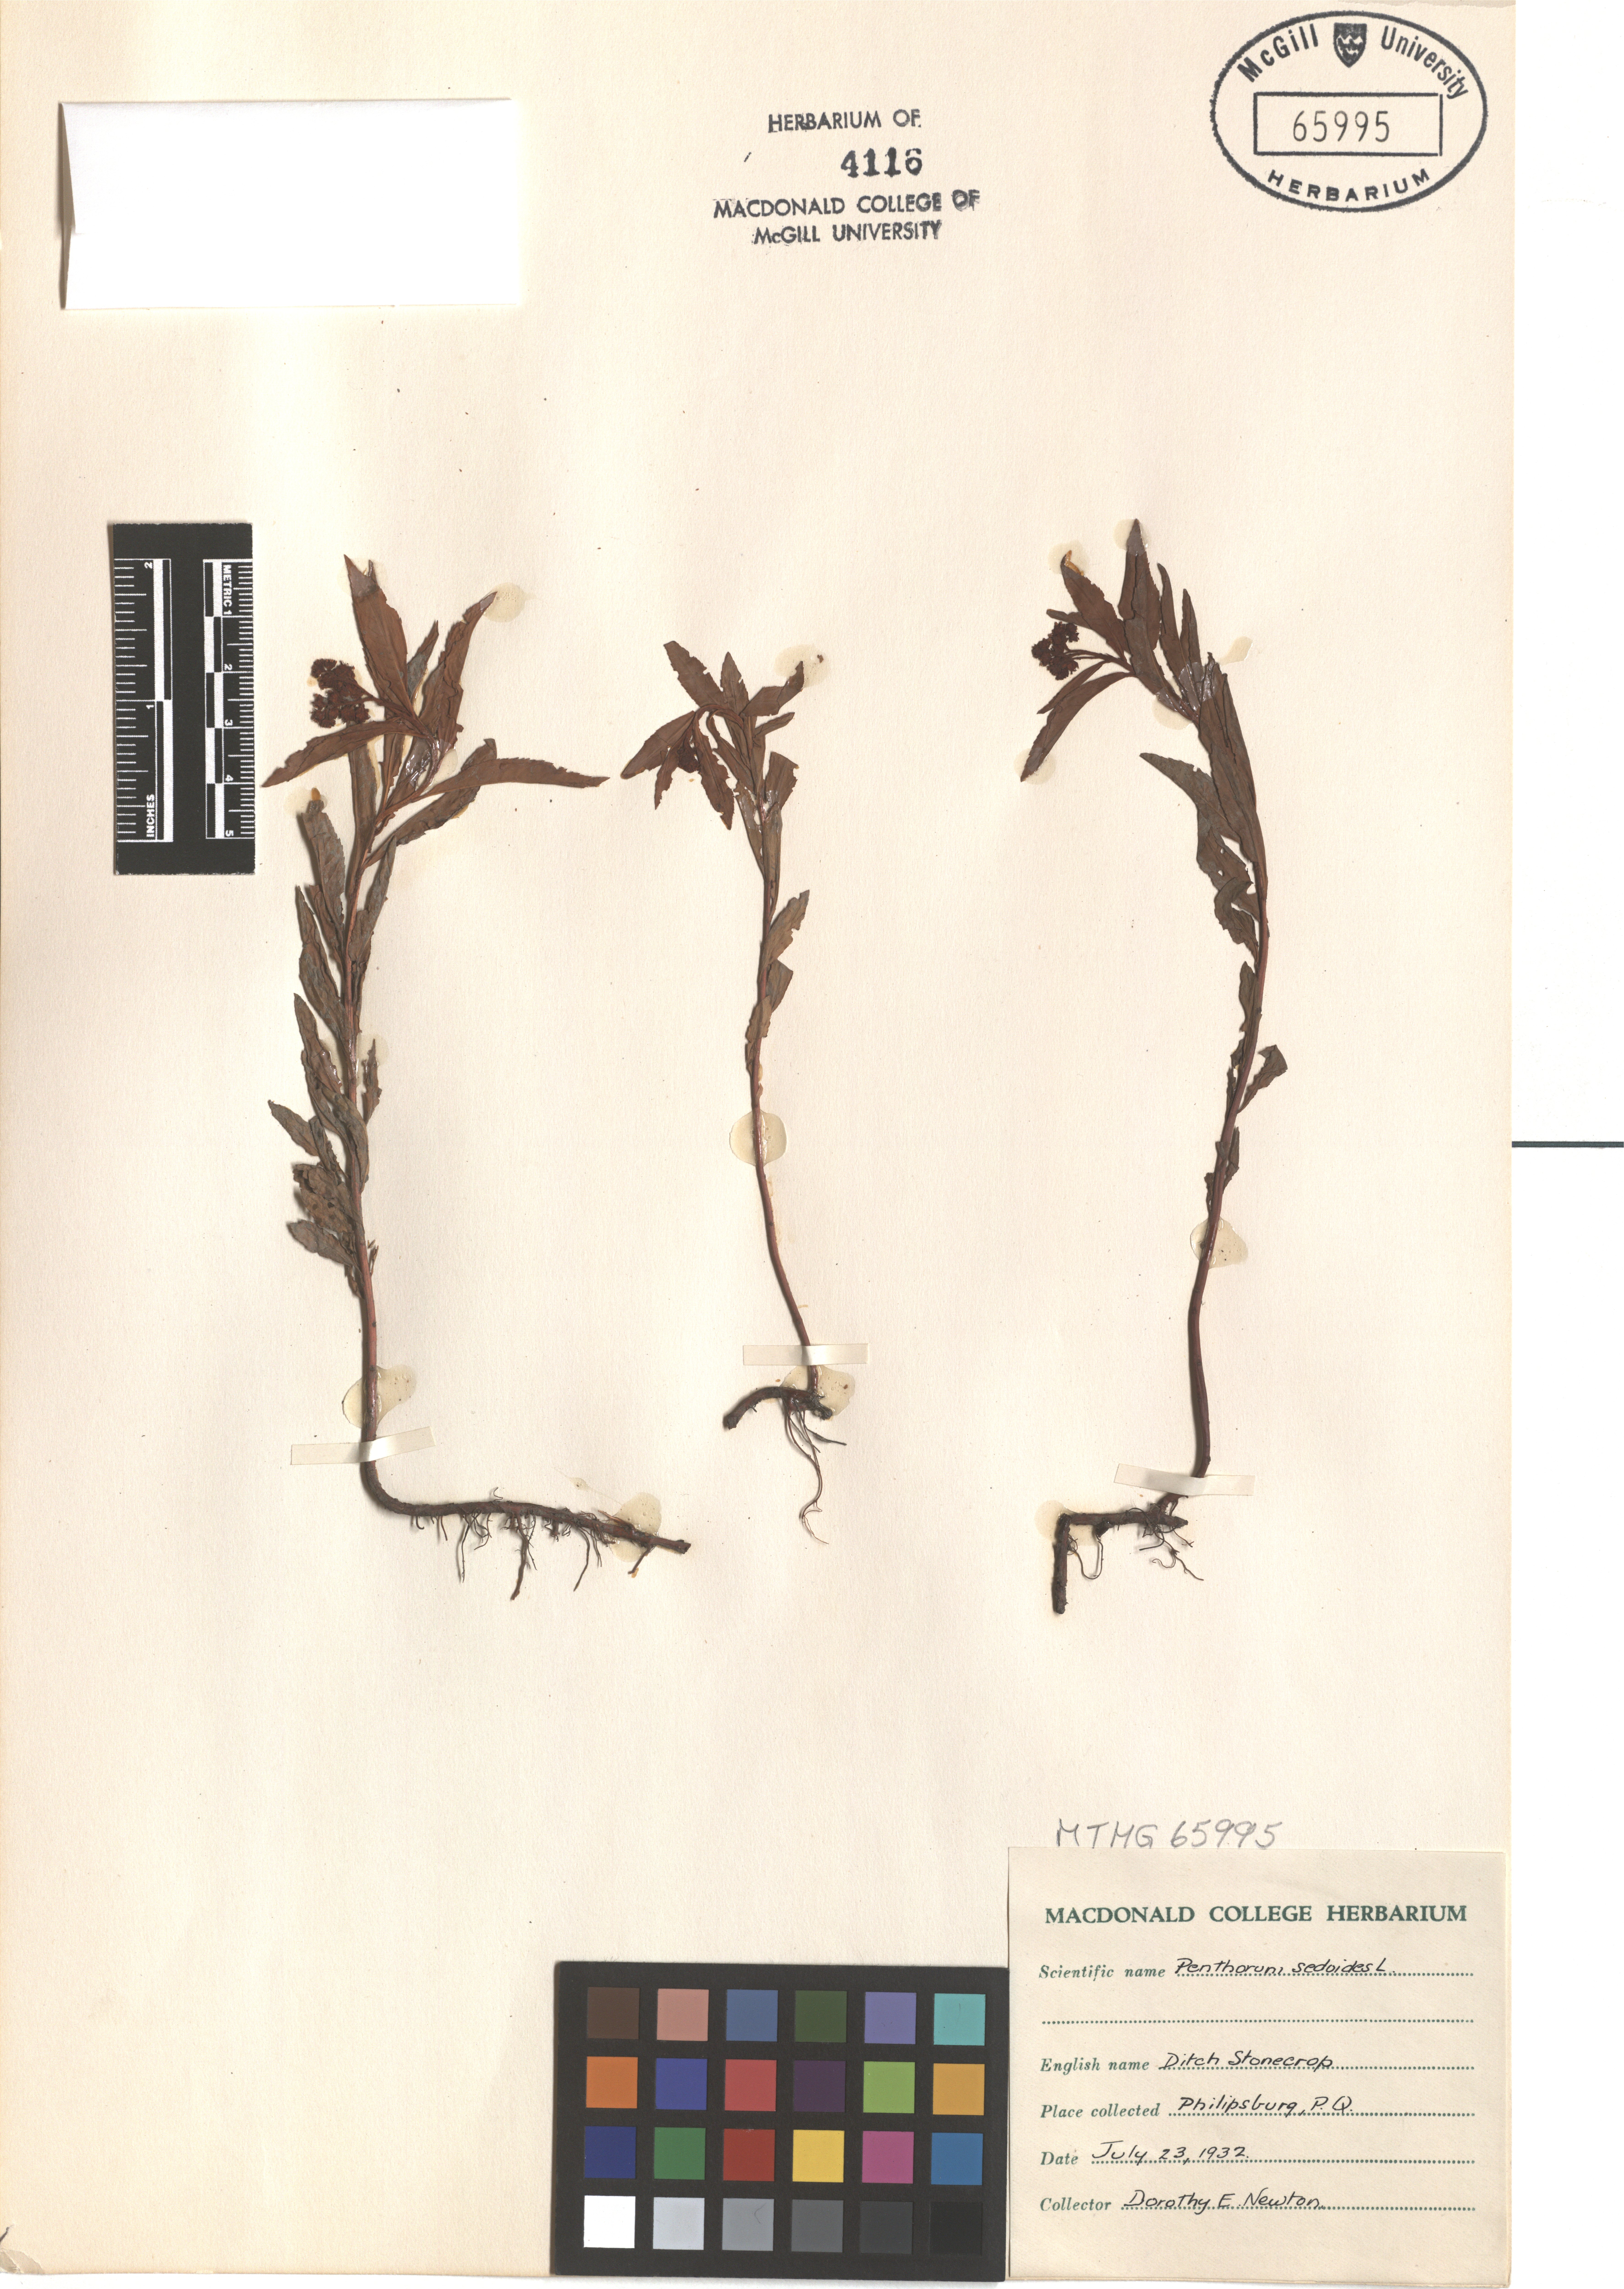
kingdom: Plantae
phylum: Tracheophyta
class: Magnoliopsida
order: Saxifragales
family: Penthoraceae
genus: Penthorum
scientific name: Penthorum sedoides
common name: Ditch stonecrop
